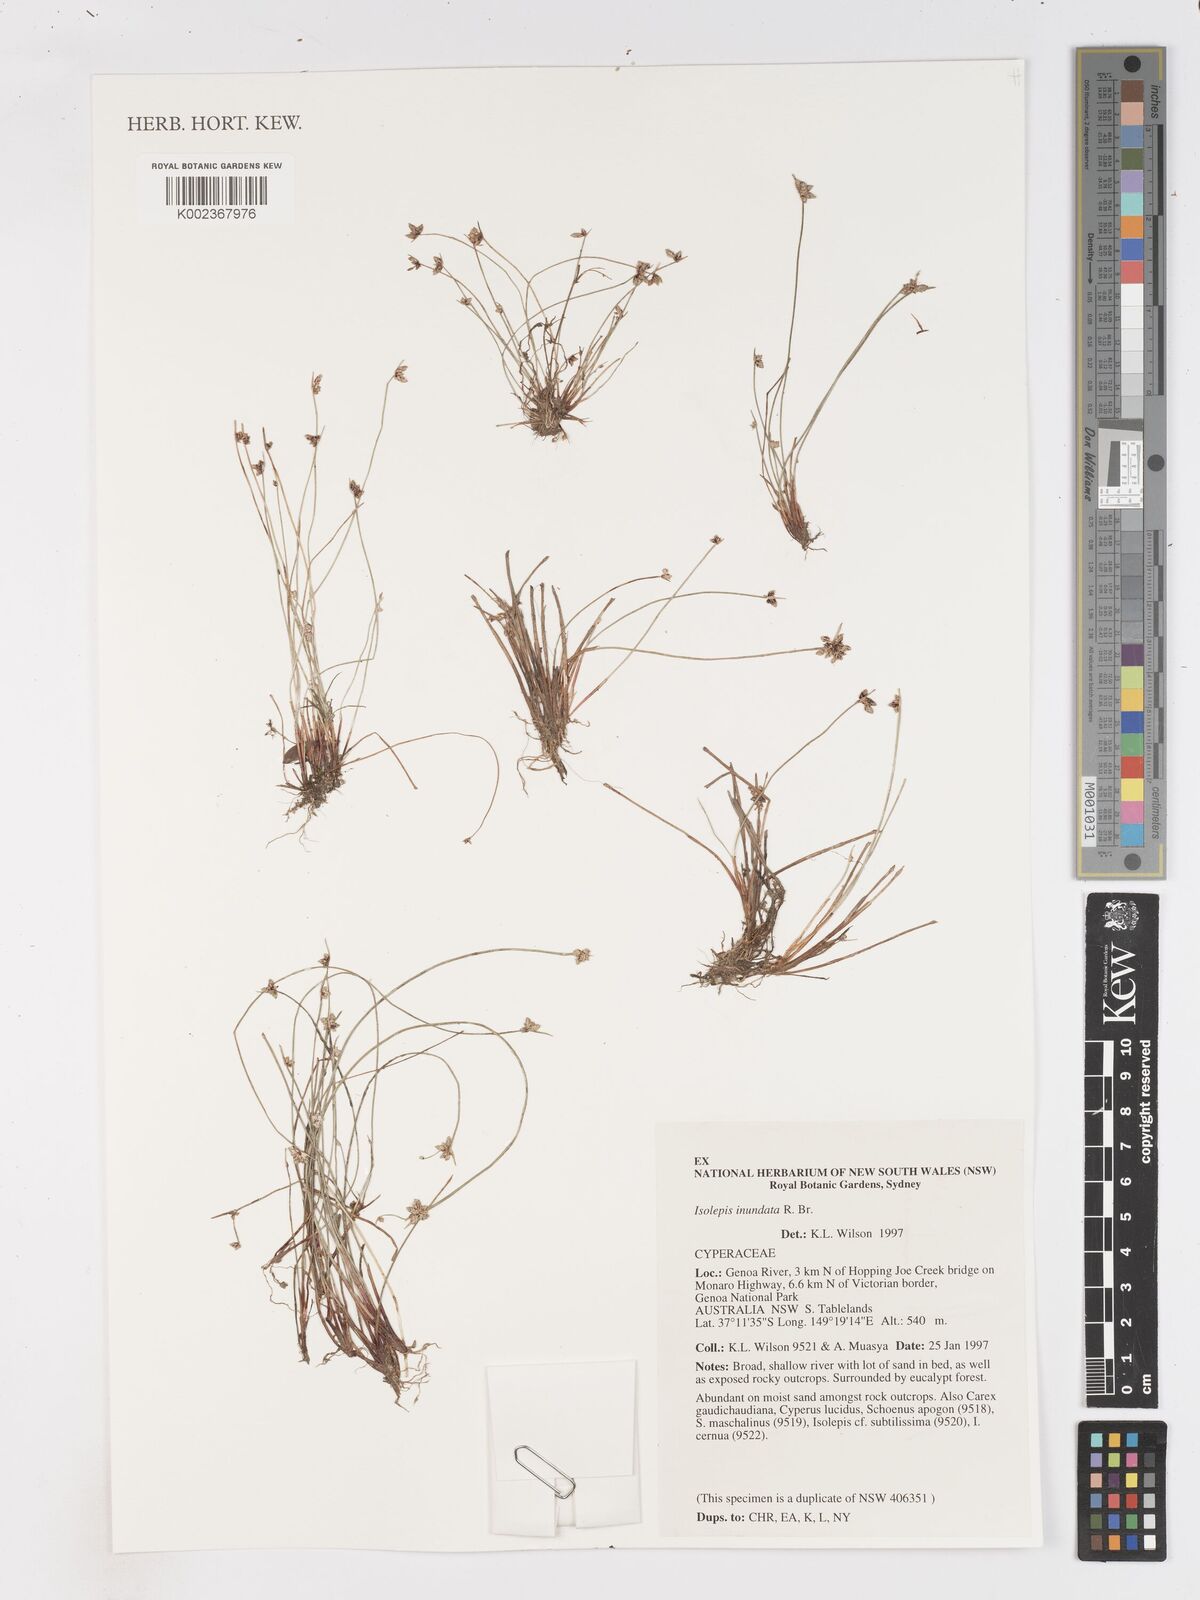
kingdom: Plantae
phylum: Tracheophyta
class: Liliopsida
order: Poales
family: Cyperaceae
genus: Isolepis
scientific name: Isolepis inundata
